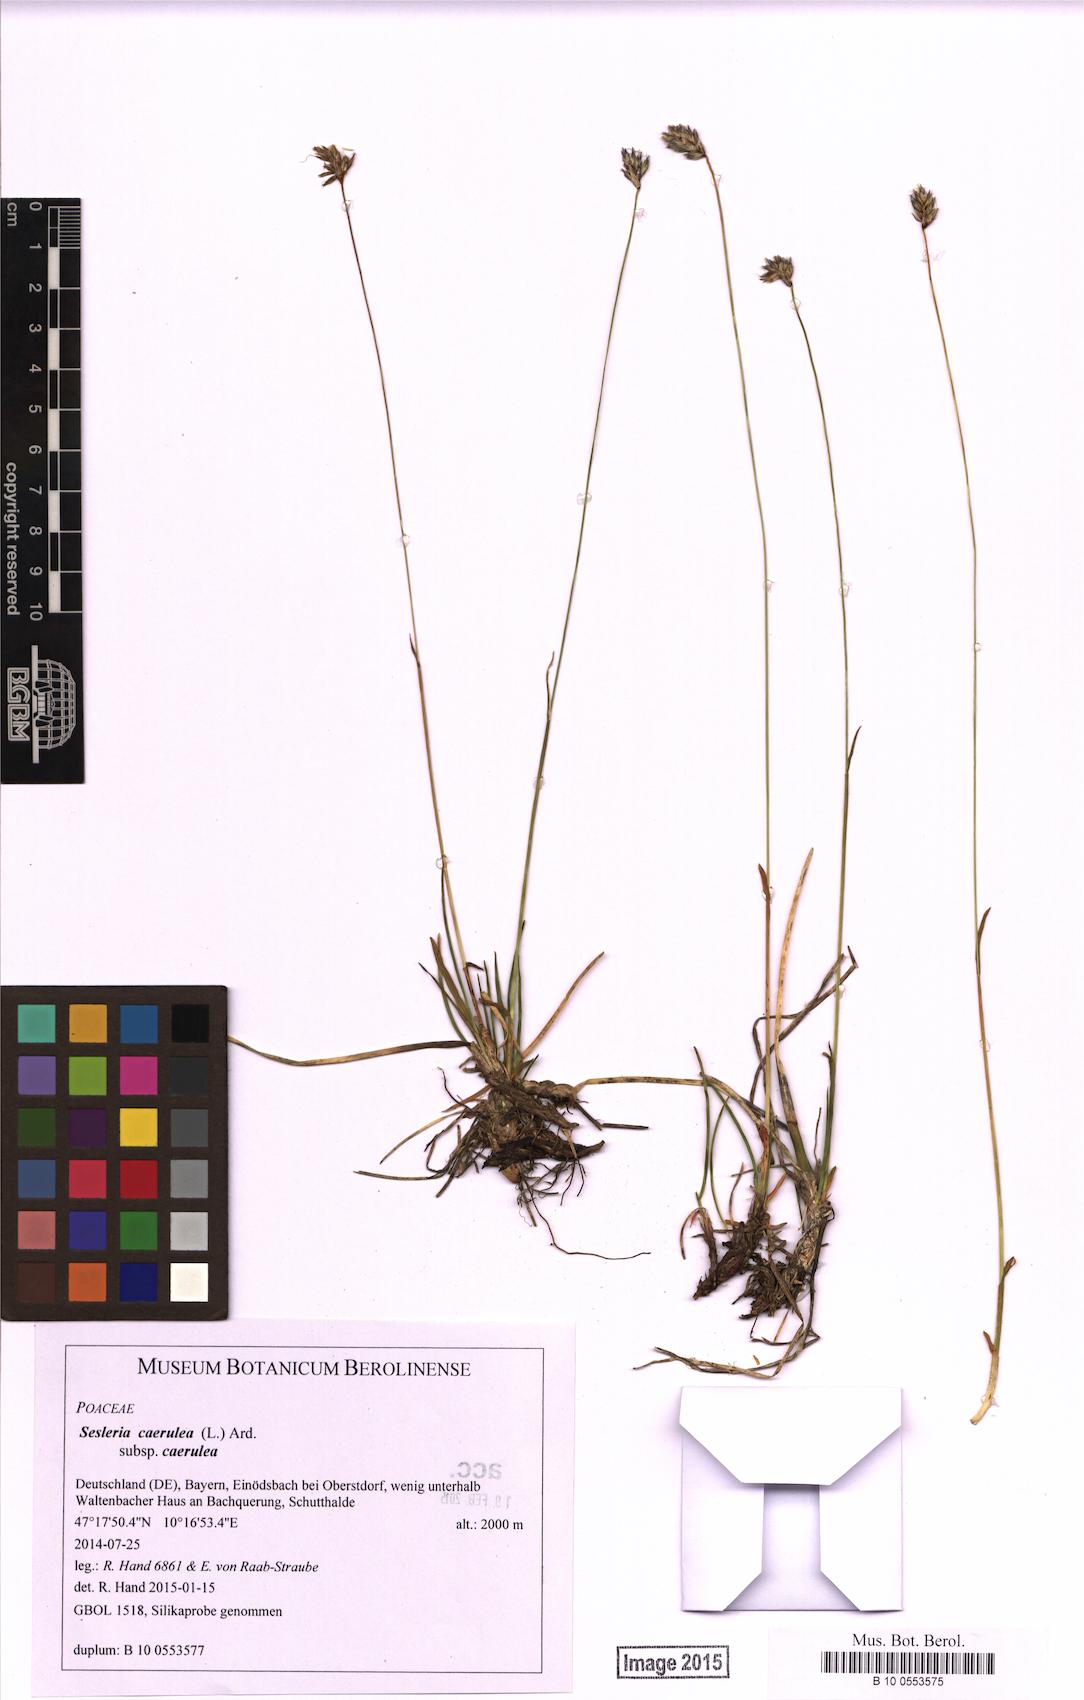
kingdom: Plantae
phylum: Tracheophyta
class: Liliopsida
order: Poales
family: Poaceae
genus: Sesleria
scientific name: Sesleria caerulea
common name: Blue moor-grass
